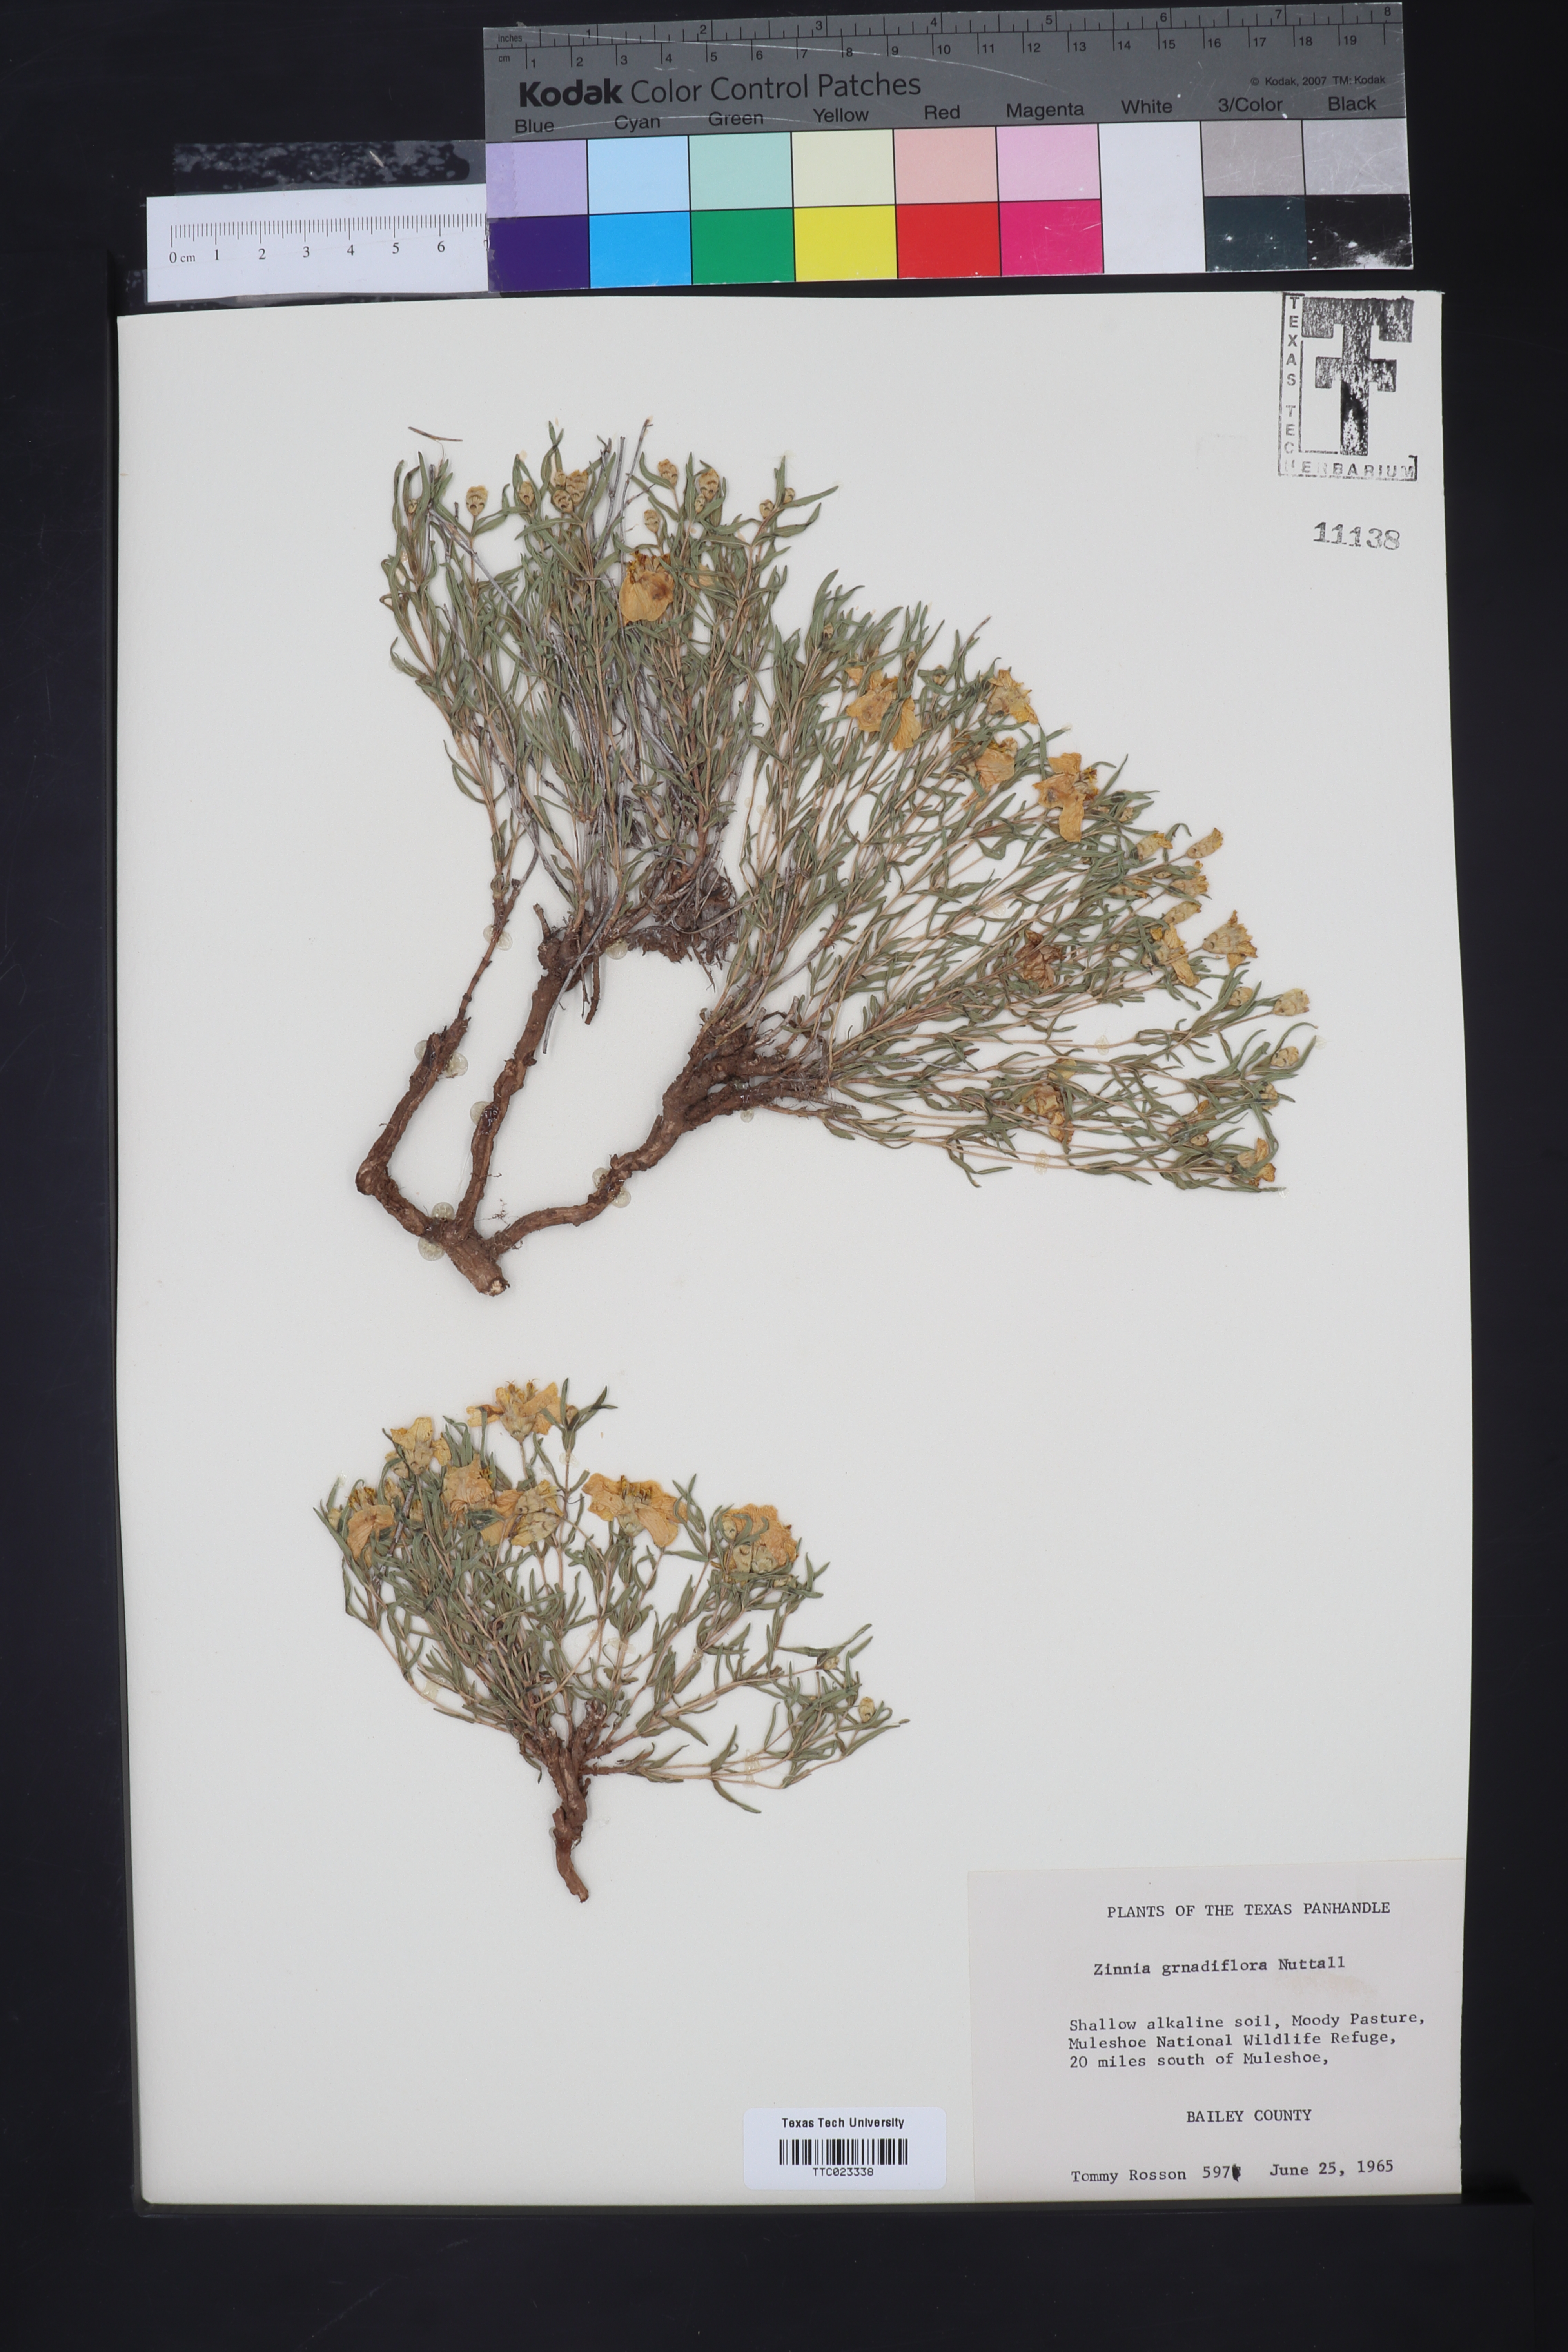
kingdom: Plantae
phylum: Tracheophyta
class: Magnoliopsida
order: Asterales
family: Asteraceae
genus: Zinnia
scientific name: Zinnia grandiflora
